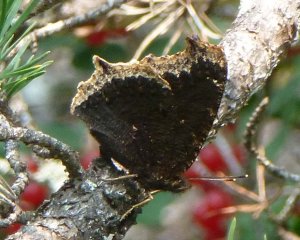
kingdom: Animalia
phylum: Arthropoda
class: Insecta
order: Lepidoptera
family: Nymphalidae
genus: Nymphalis
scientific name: Nymphalis antiopa
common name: Mourning Cloak
